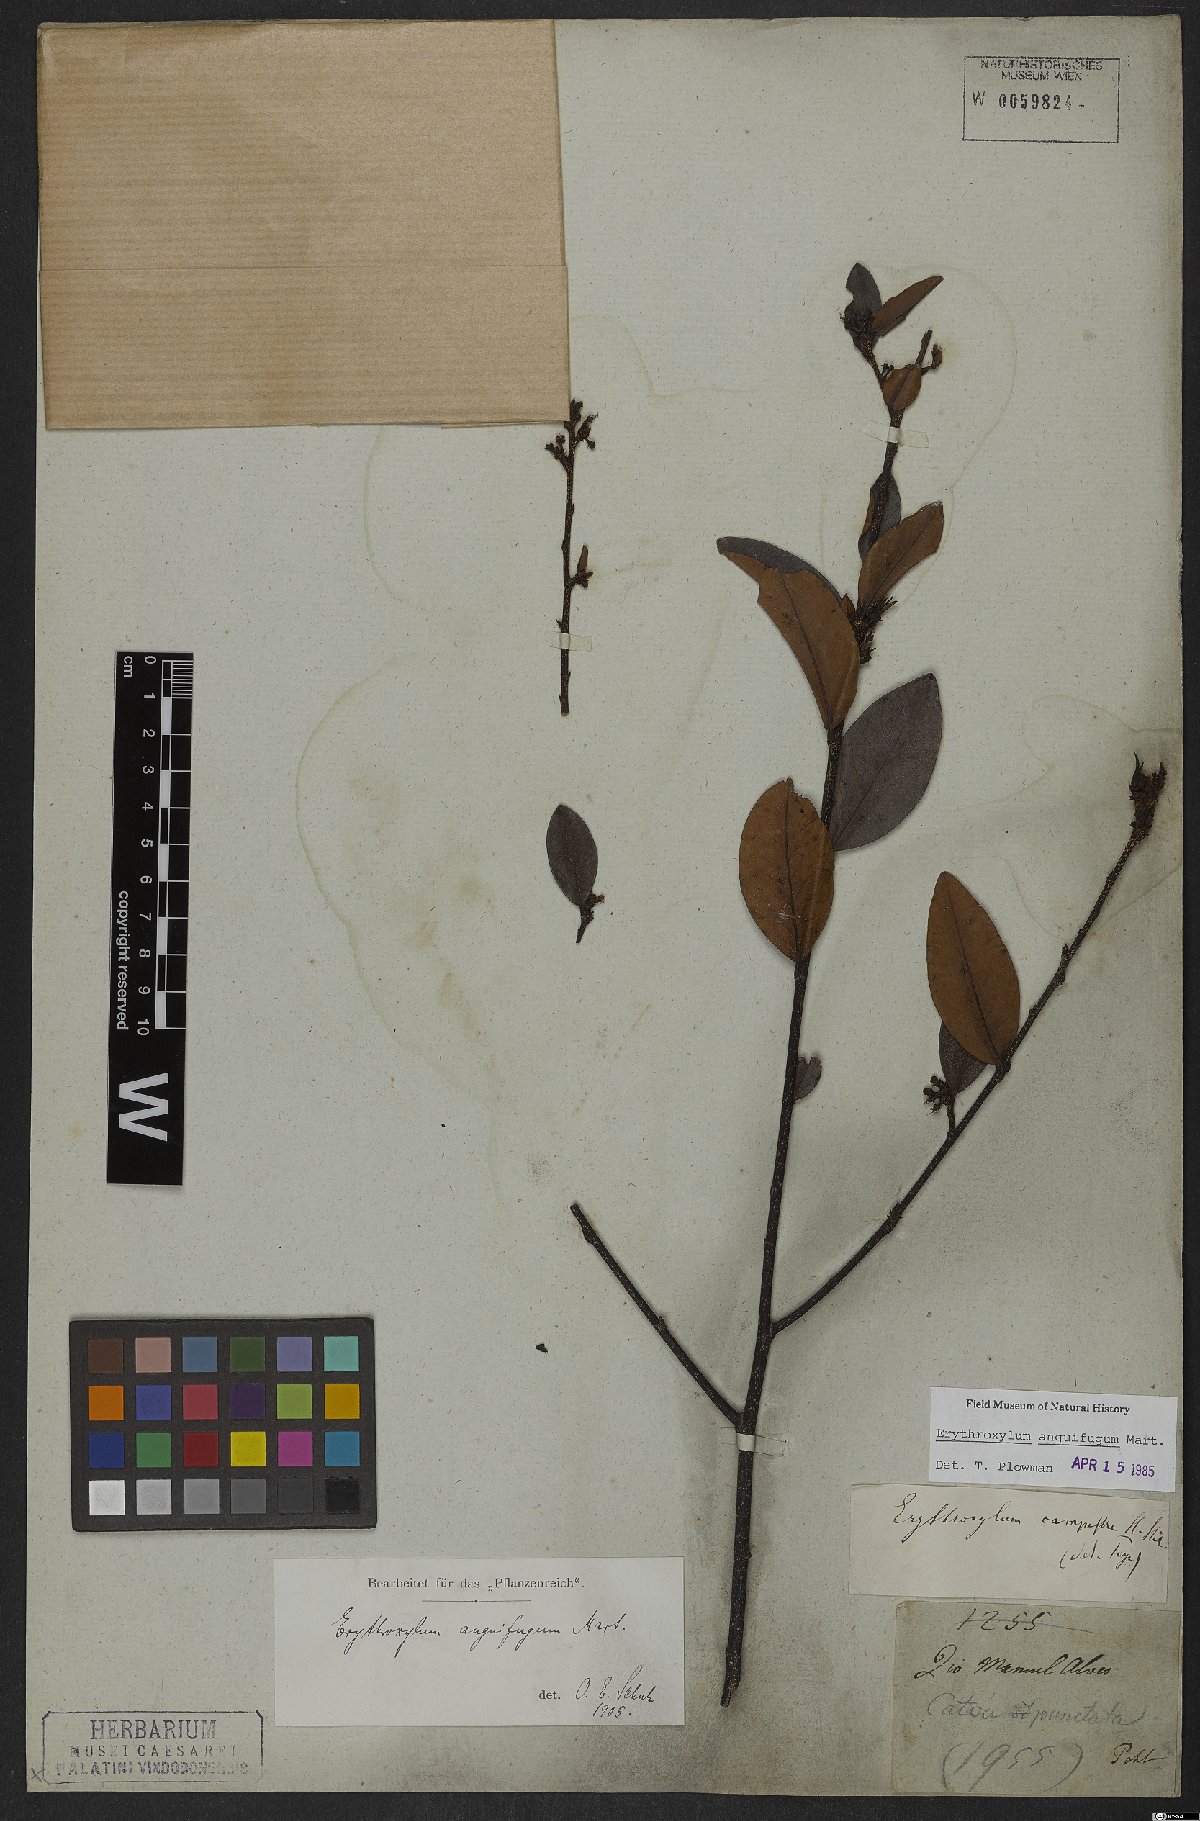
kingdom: Plantae
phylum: Tracheophyta
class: Magnoliopsida
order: Malpighiales
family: Erythroxylaceae
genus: Erythroxylum
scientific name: Erythroxylum anguifugum
